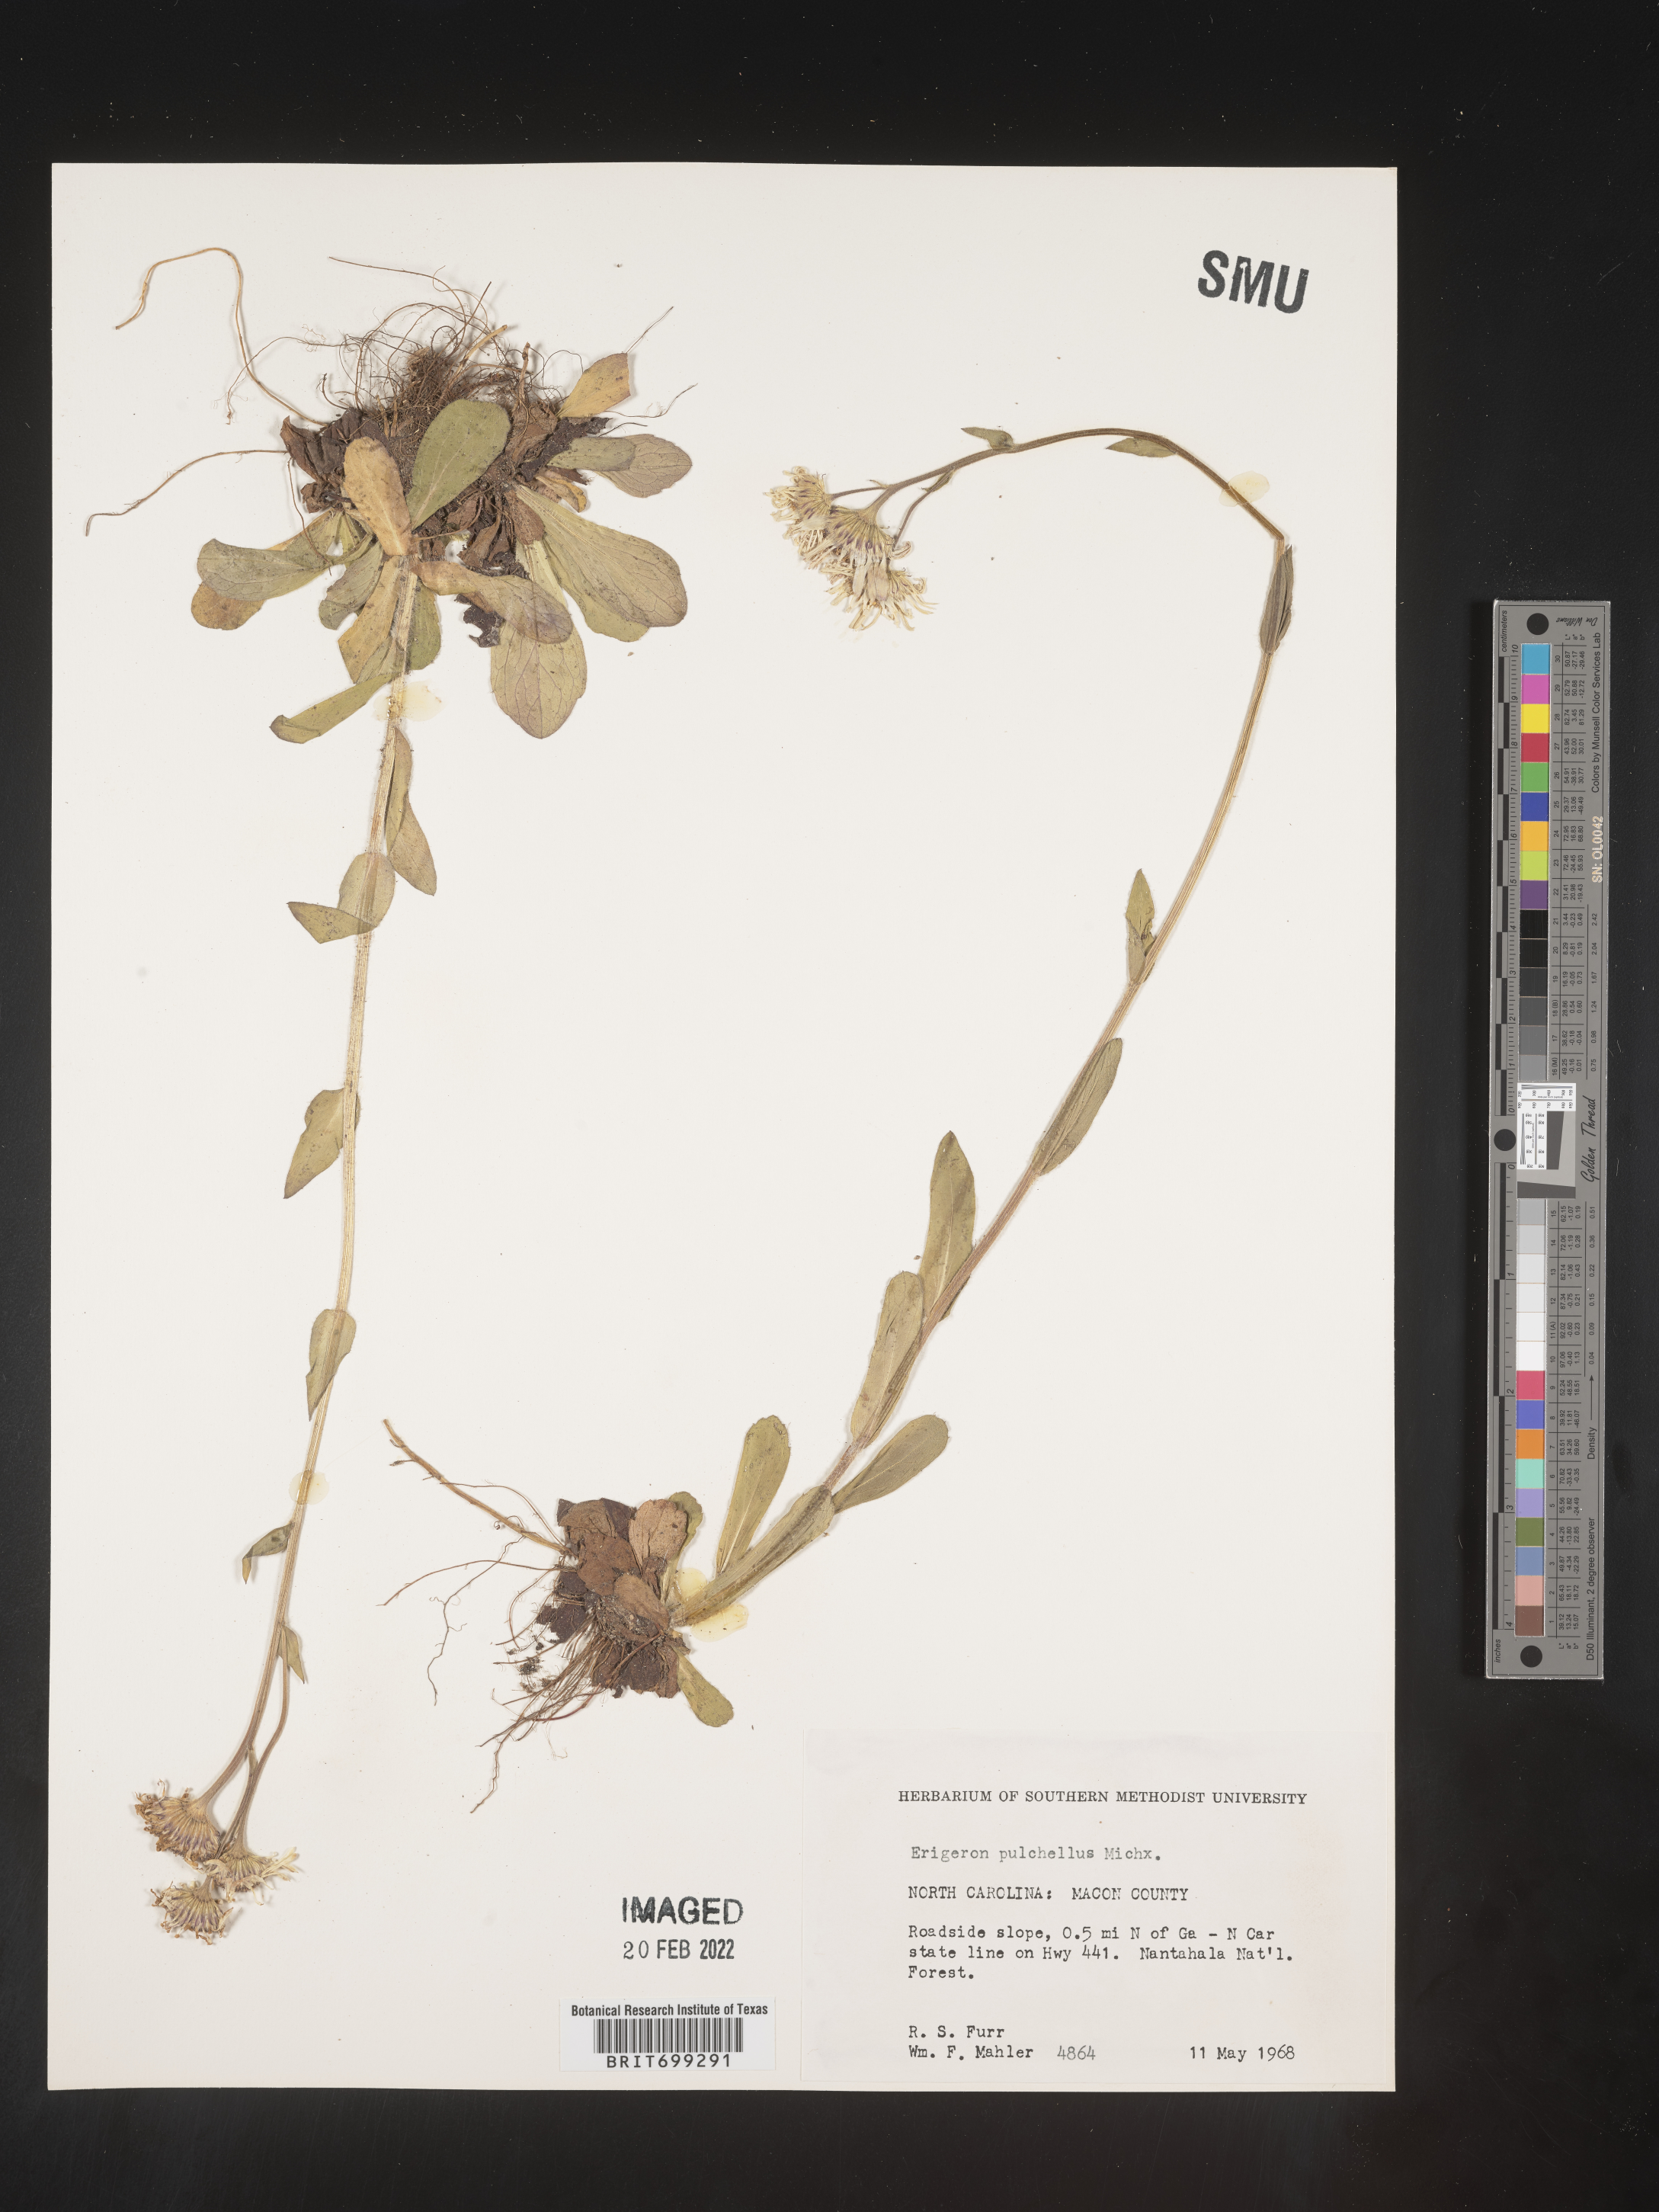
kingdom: Plantae
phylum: Tracheophyta
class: Magnoliopsida
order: Asterales
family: Asteraceae
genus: Erigeron
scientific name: Erigeron pulchellus
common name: Hairy fleabane
